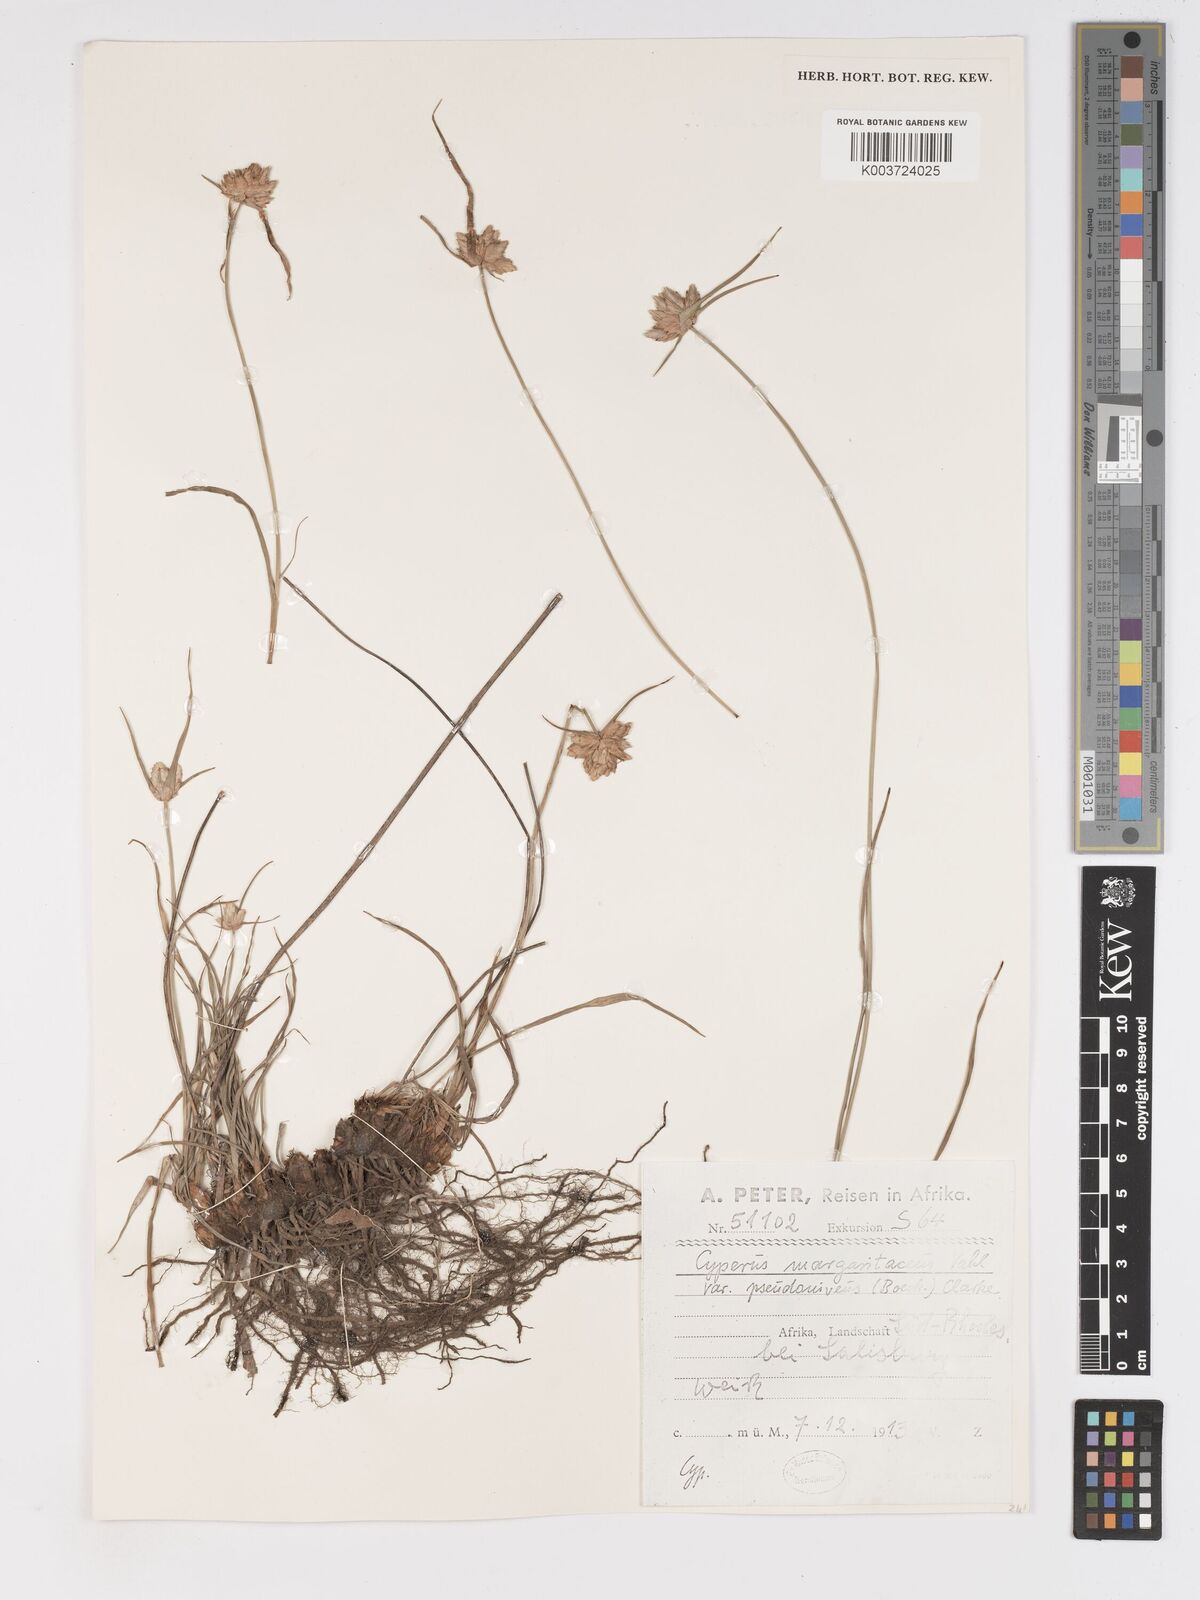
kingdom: Plantae
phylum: Tracheophyta
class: Liliopsida
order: Poales
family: Cyperaceae
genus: Cyperus
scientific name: Cyperus niveus
